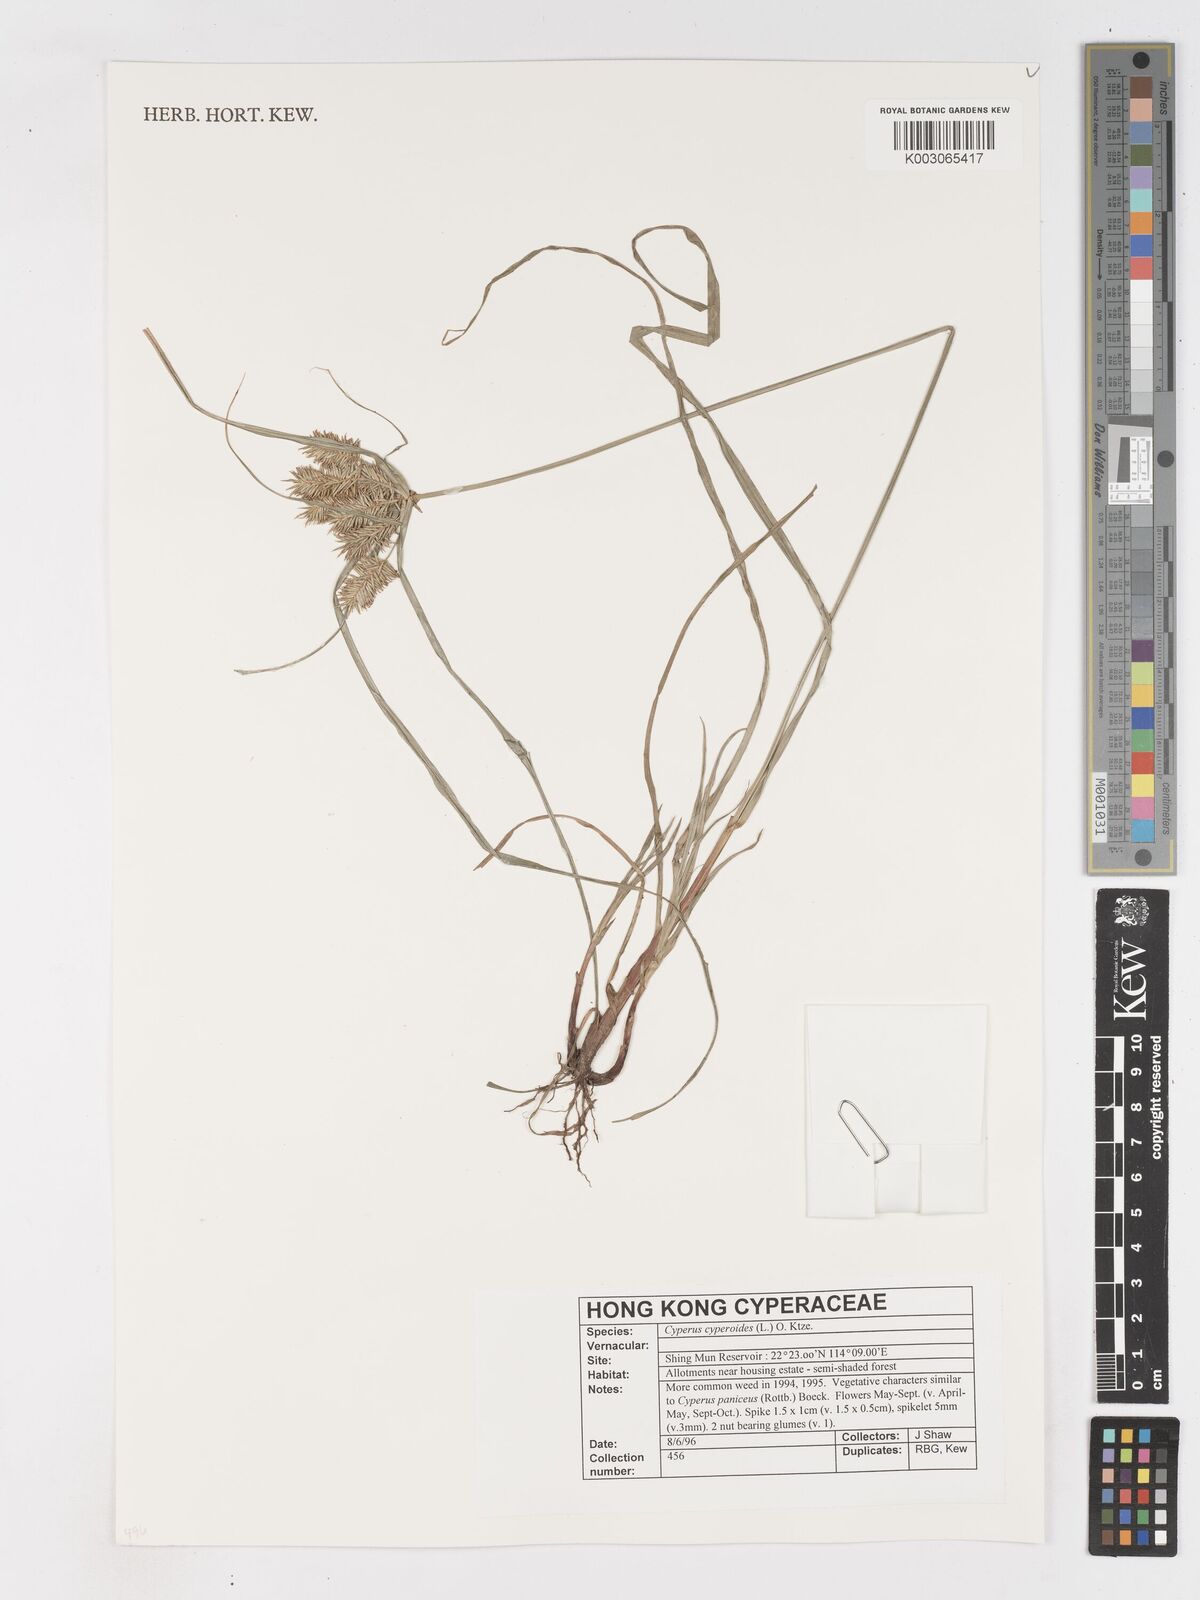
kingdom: Plantae
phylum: Tracheophyta
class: Liliopsida
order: Poales
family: Cyperaceae
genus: Cyperus
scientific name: Cyperus cyperoides
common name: Pacific island flat sedge
